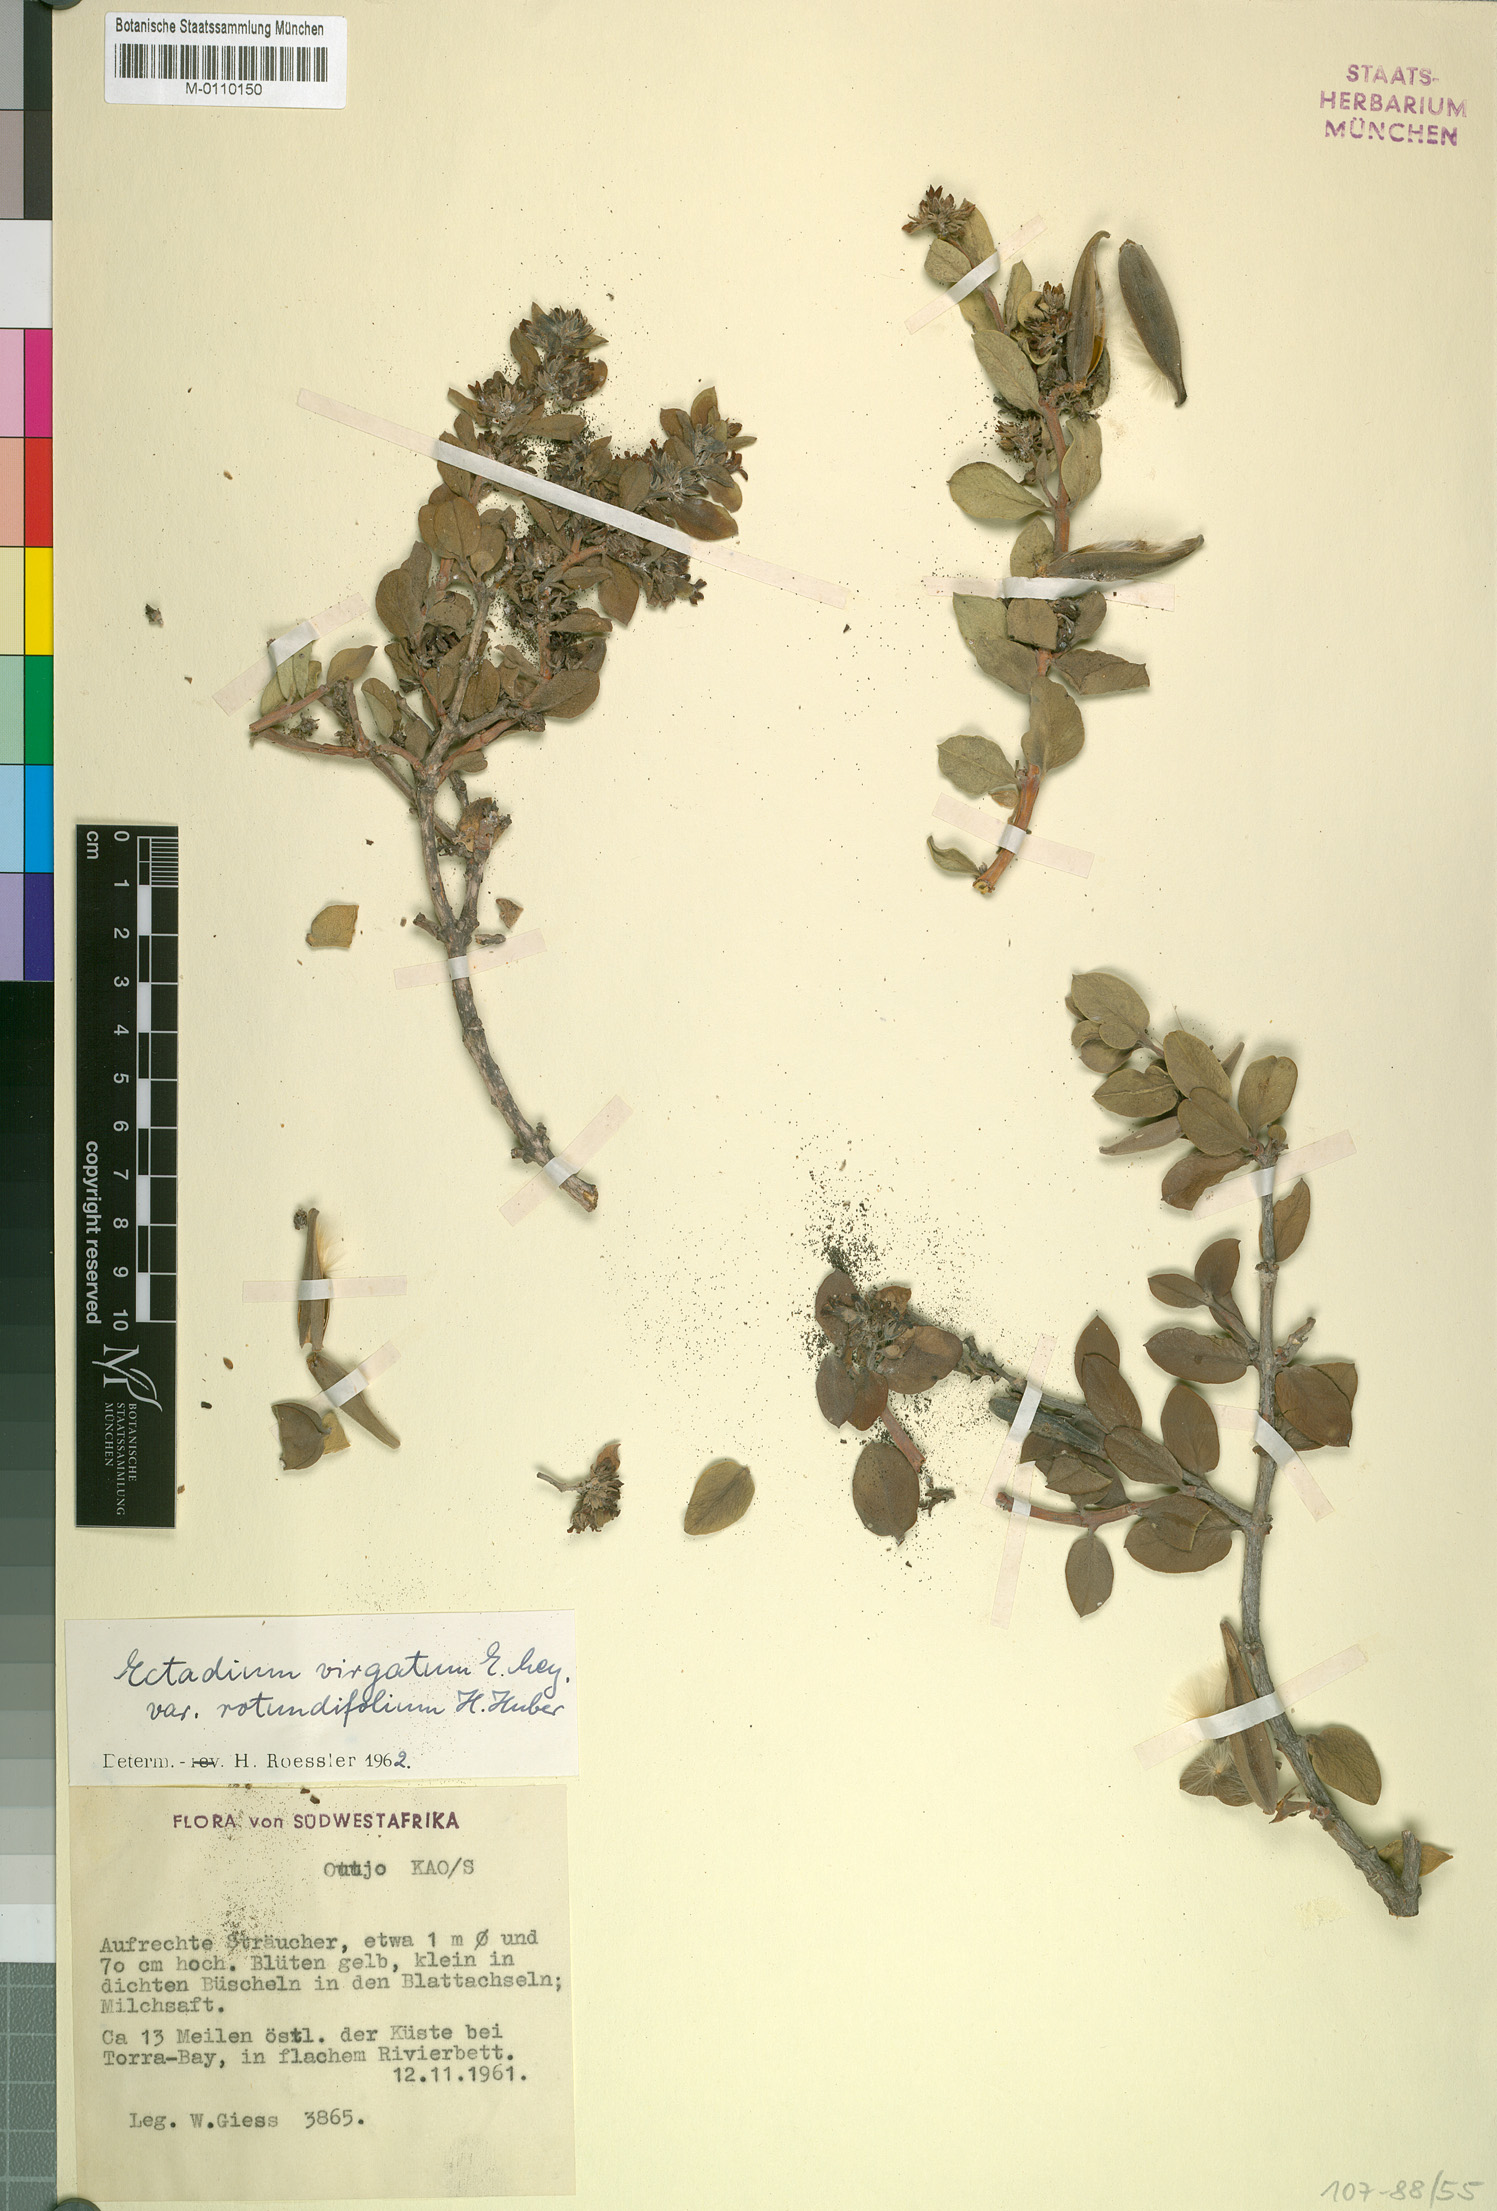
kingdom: Plantae
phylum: Tracheophyta
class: Magnoliopsida
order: Gentianales
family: Apocynaceae
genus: Ectadium
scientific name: Ectadium rotundifolium
